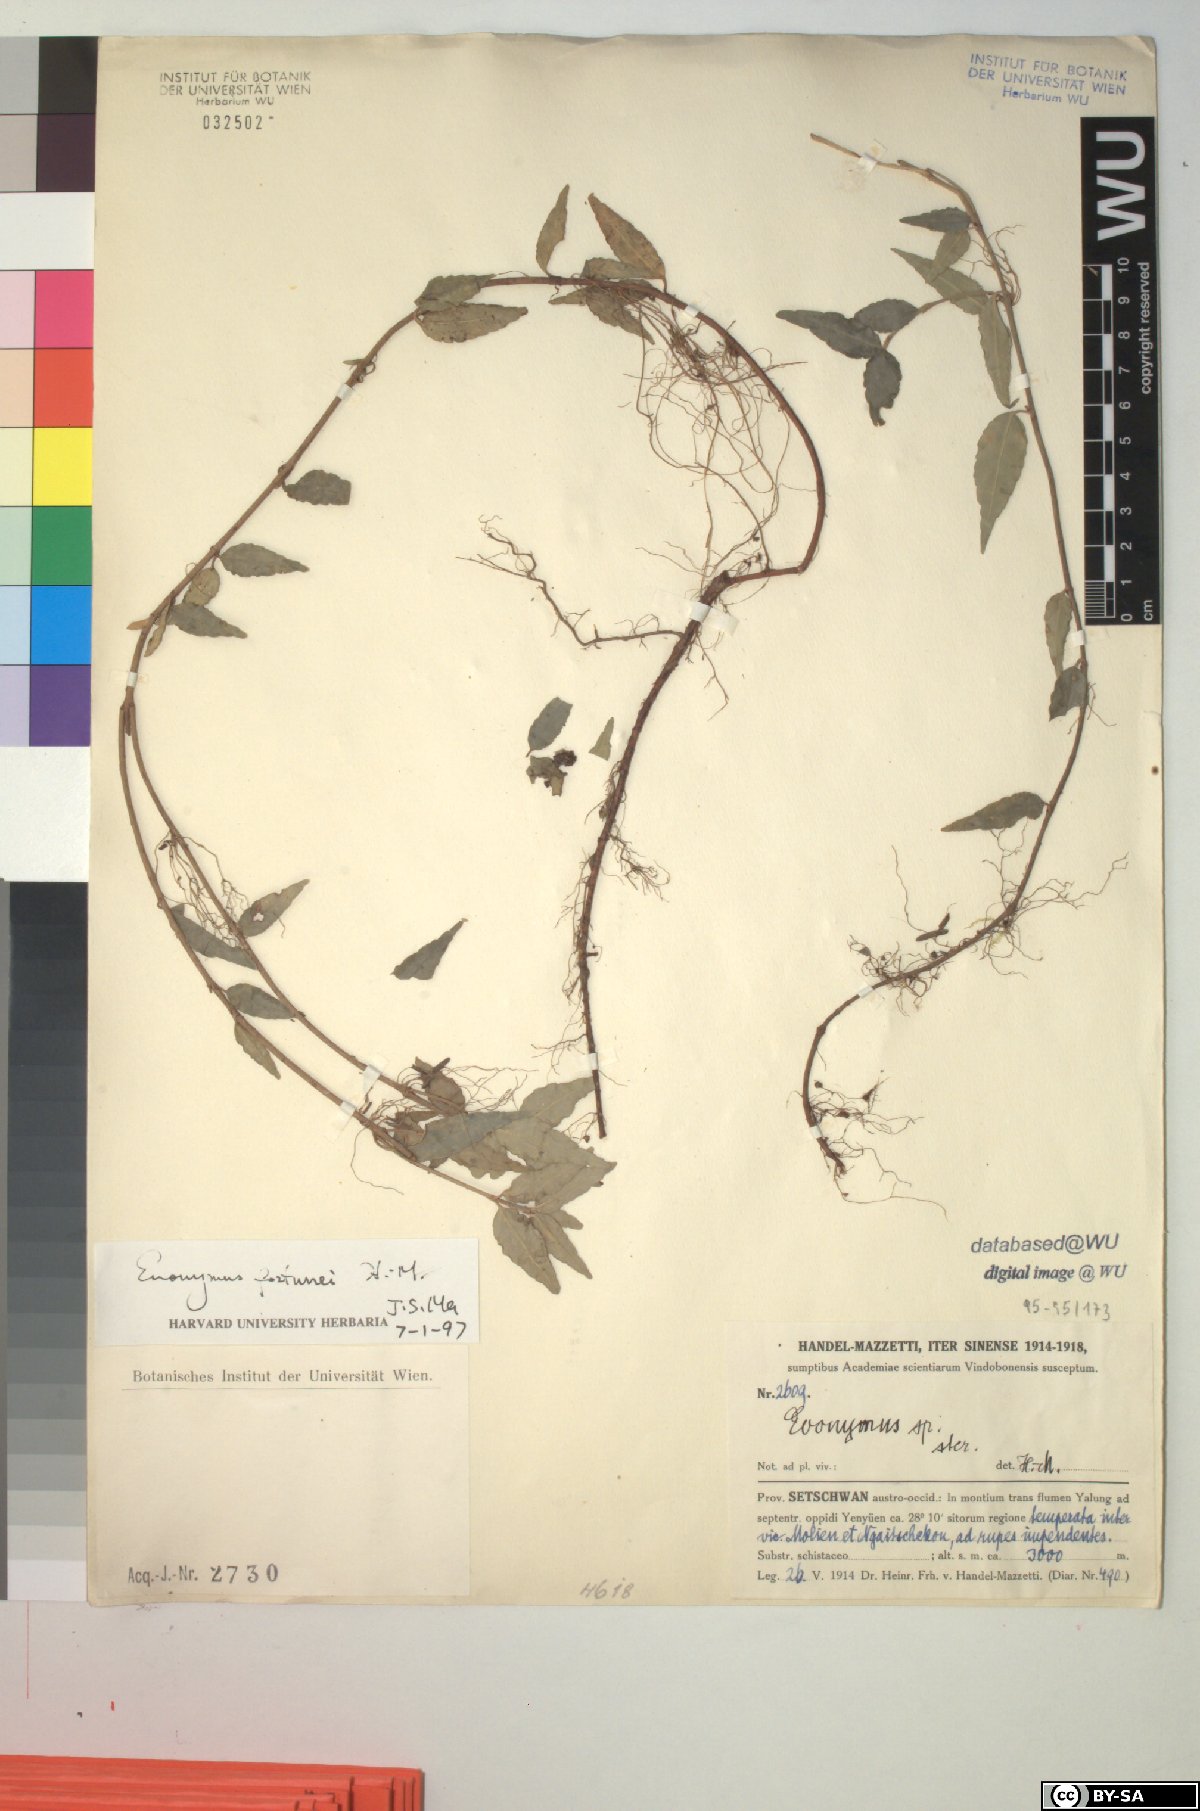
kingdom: Plantae
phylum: Tracheophyta
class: Magnoliopsida
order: Celastrales
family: Celastraceae
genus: Euonymus
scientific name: Euonymus fortunei
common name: Climbing euonymus
